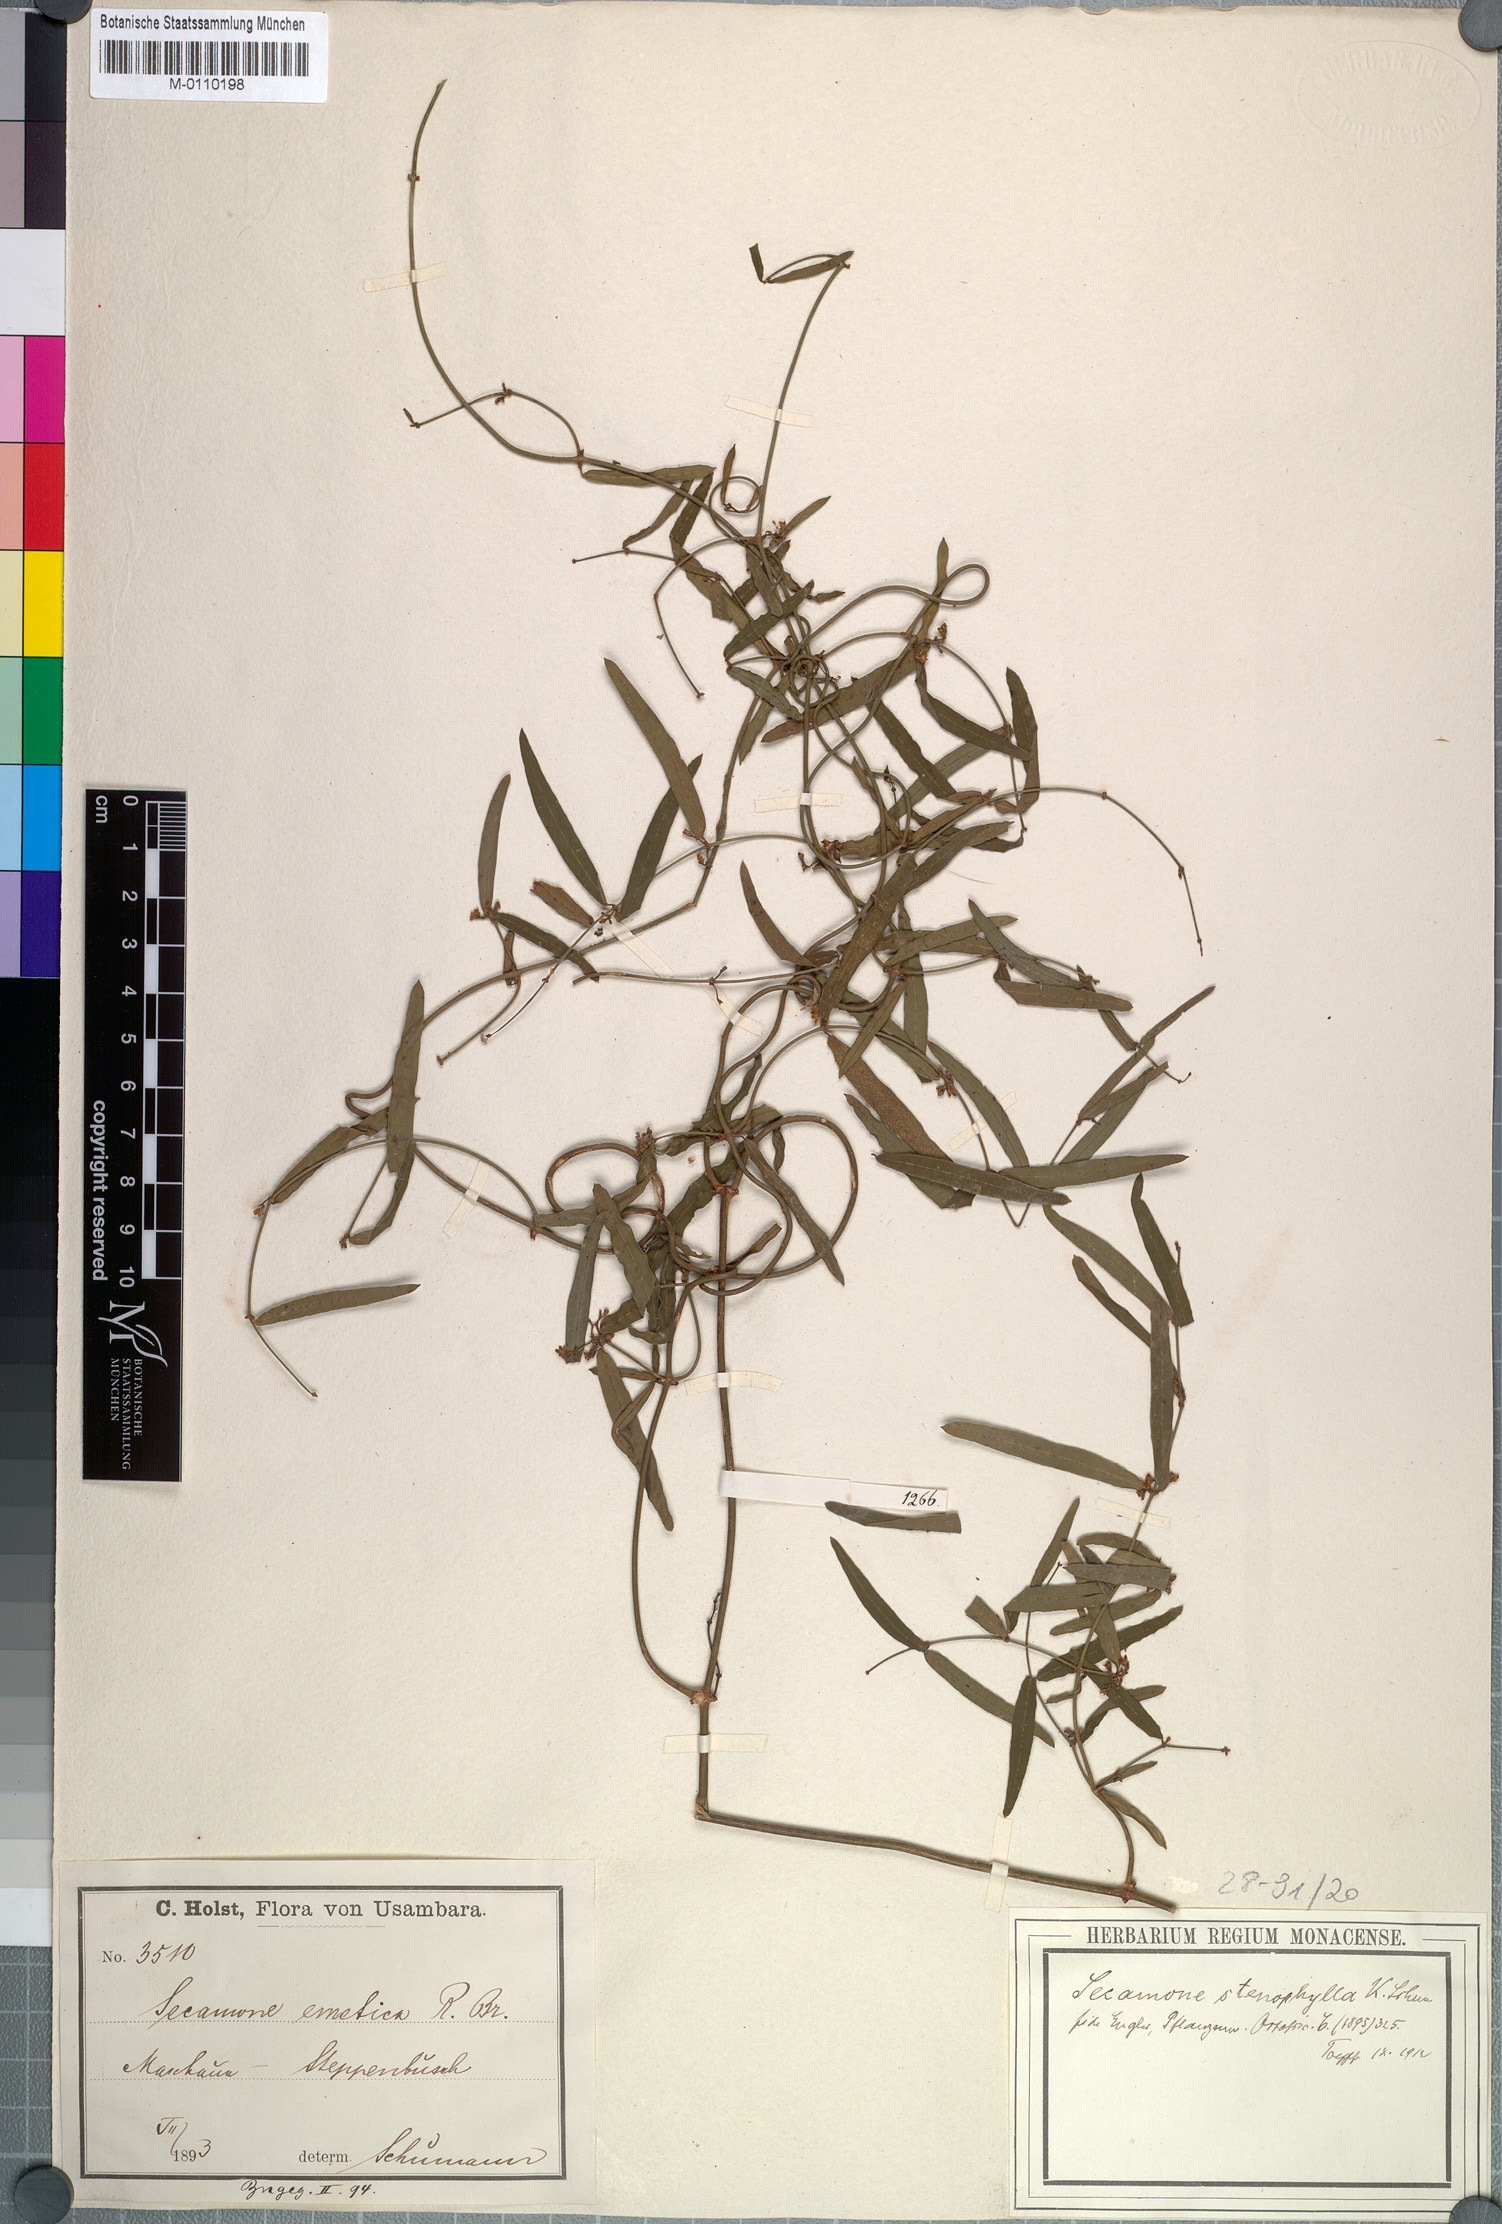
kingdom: Plantae
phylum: Tracheophyta
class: Magnoliopsida
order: Gentianales
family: Apocynaceae
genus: Secamone
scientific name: Secamone punctulata
